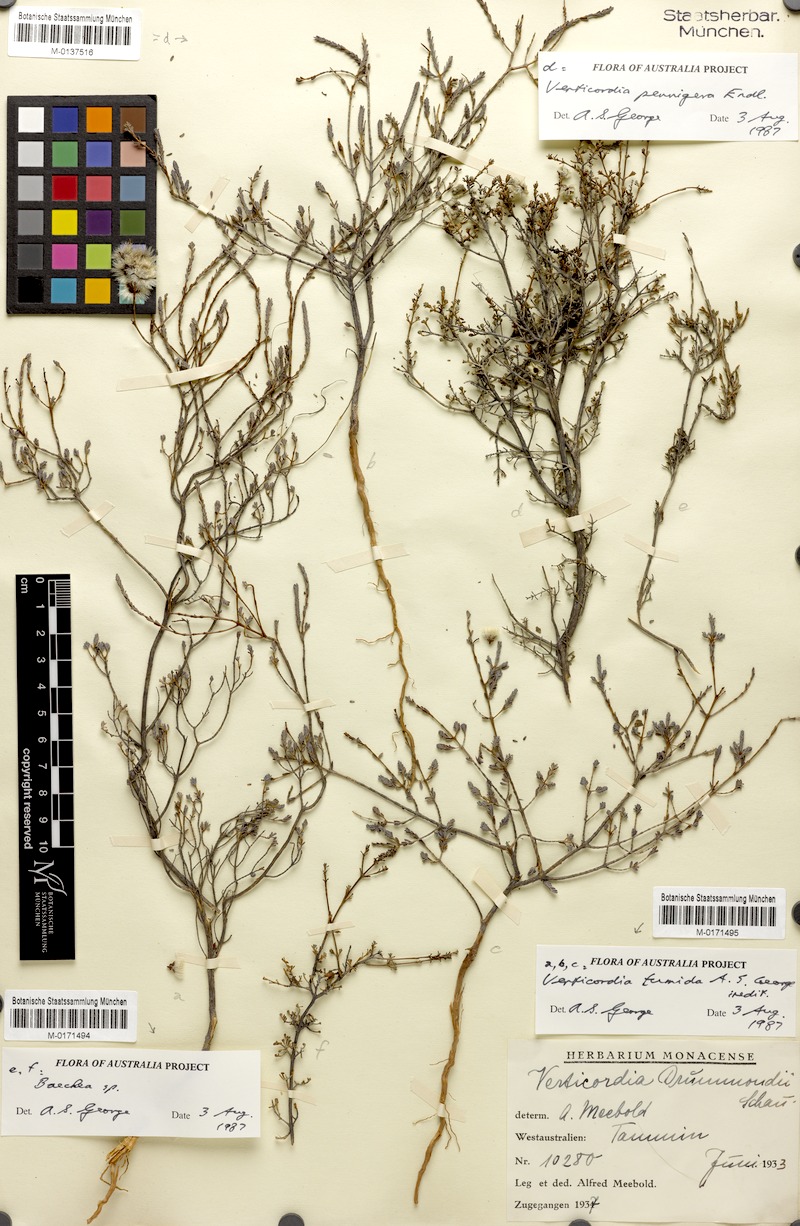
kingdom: Plantae
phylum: Tracheophyta
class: Magnoliopsida
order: Myrtales
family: Myrtaceae
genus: Verticordia
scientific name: Verticordia pennigera
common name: Native-tea
